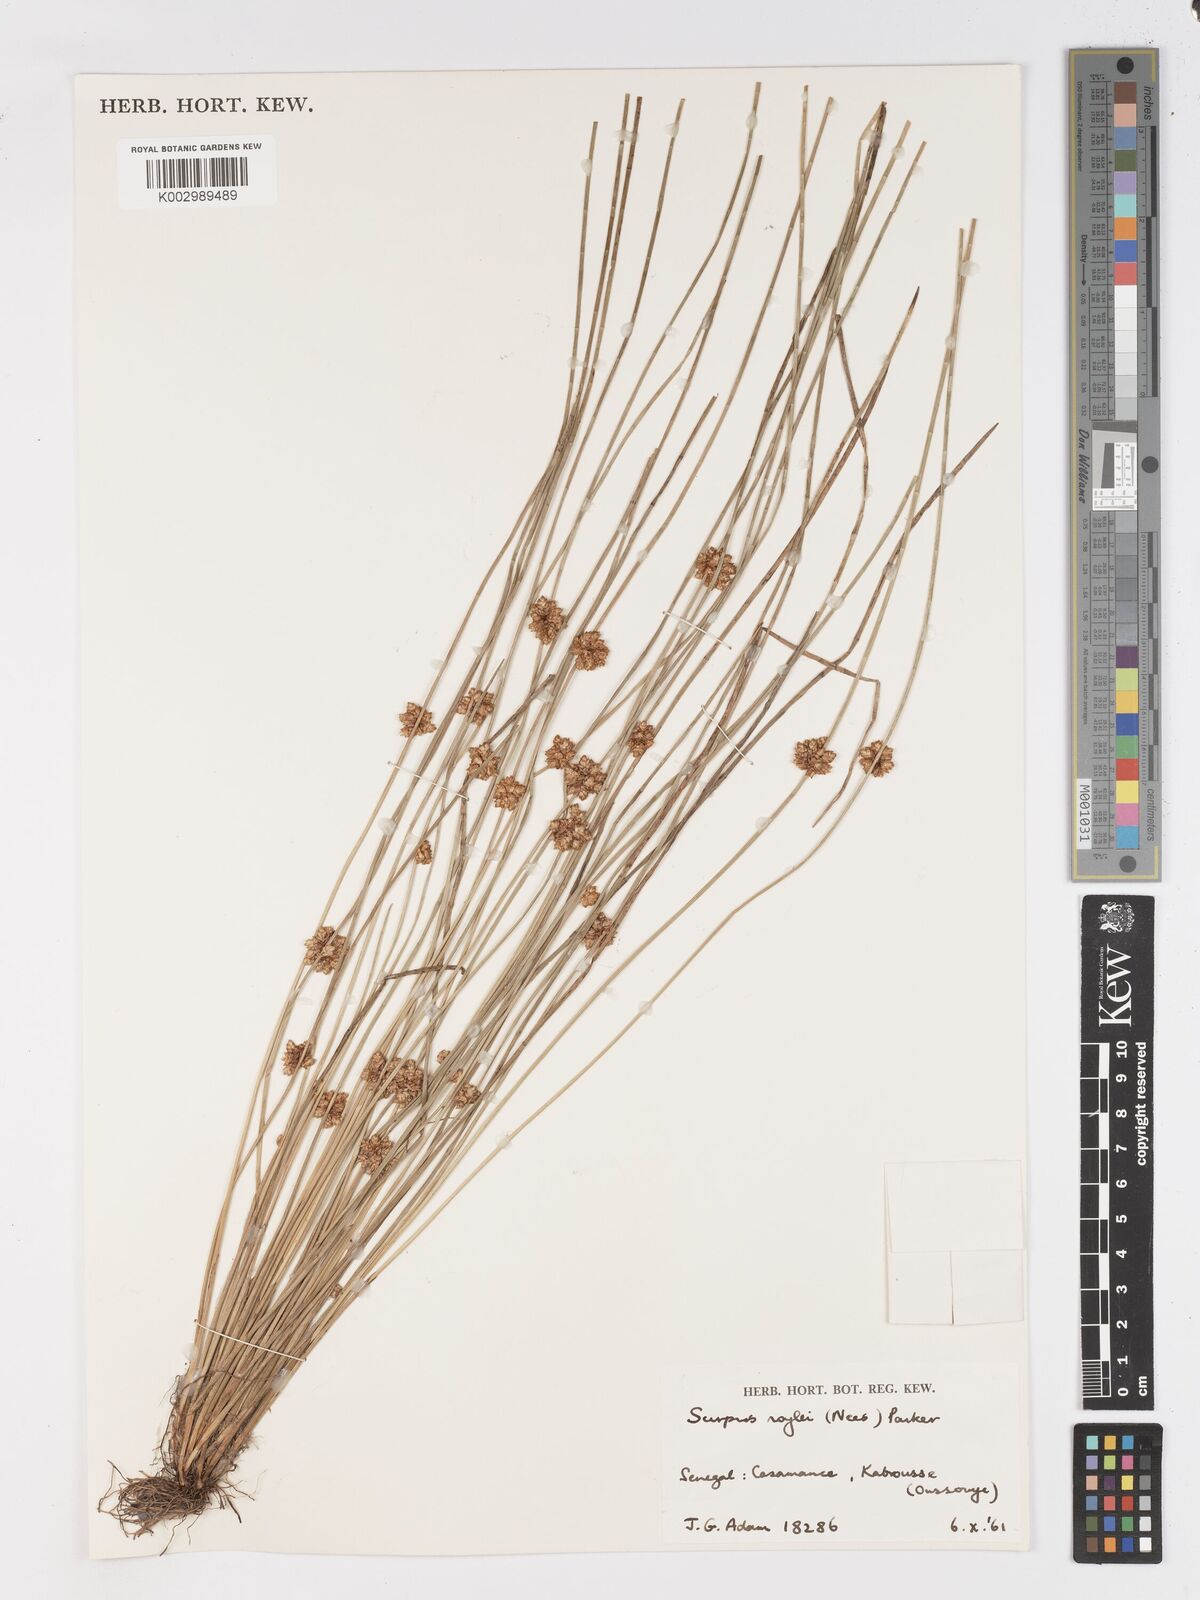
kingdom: Plantae
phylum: Tracheophyta
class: Liliopsida
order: Poales
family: Cyperaceae
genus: Schoenoplectiella
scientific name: Schoenoplectiella roylei
